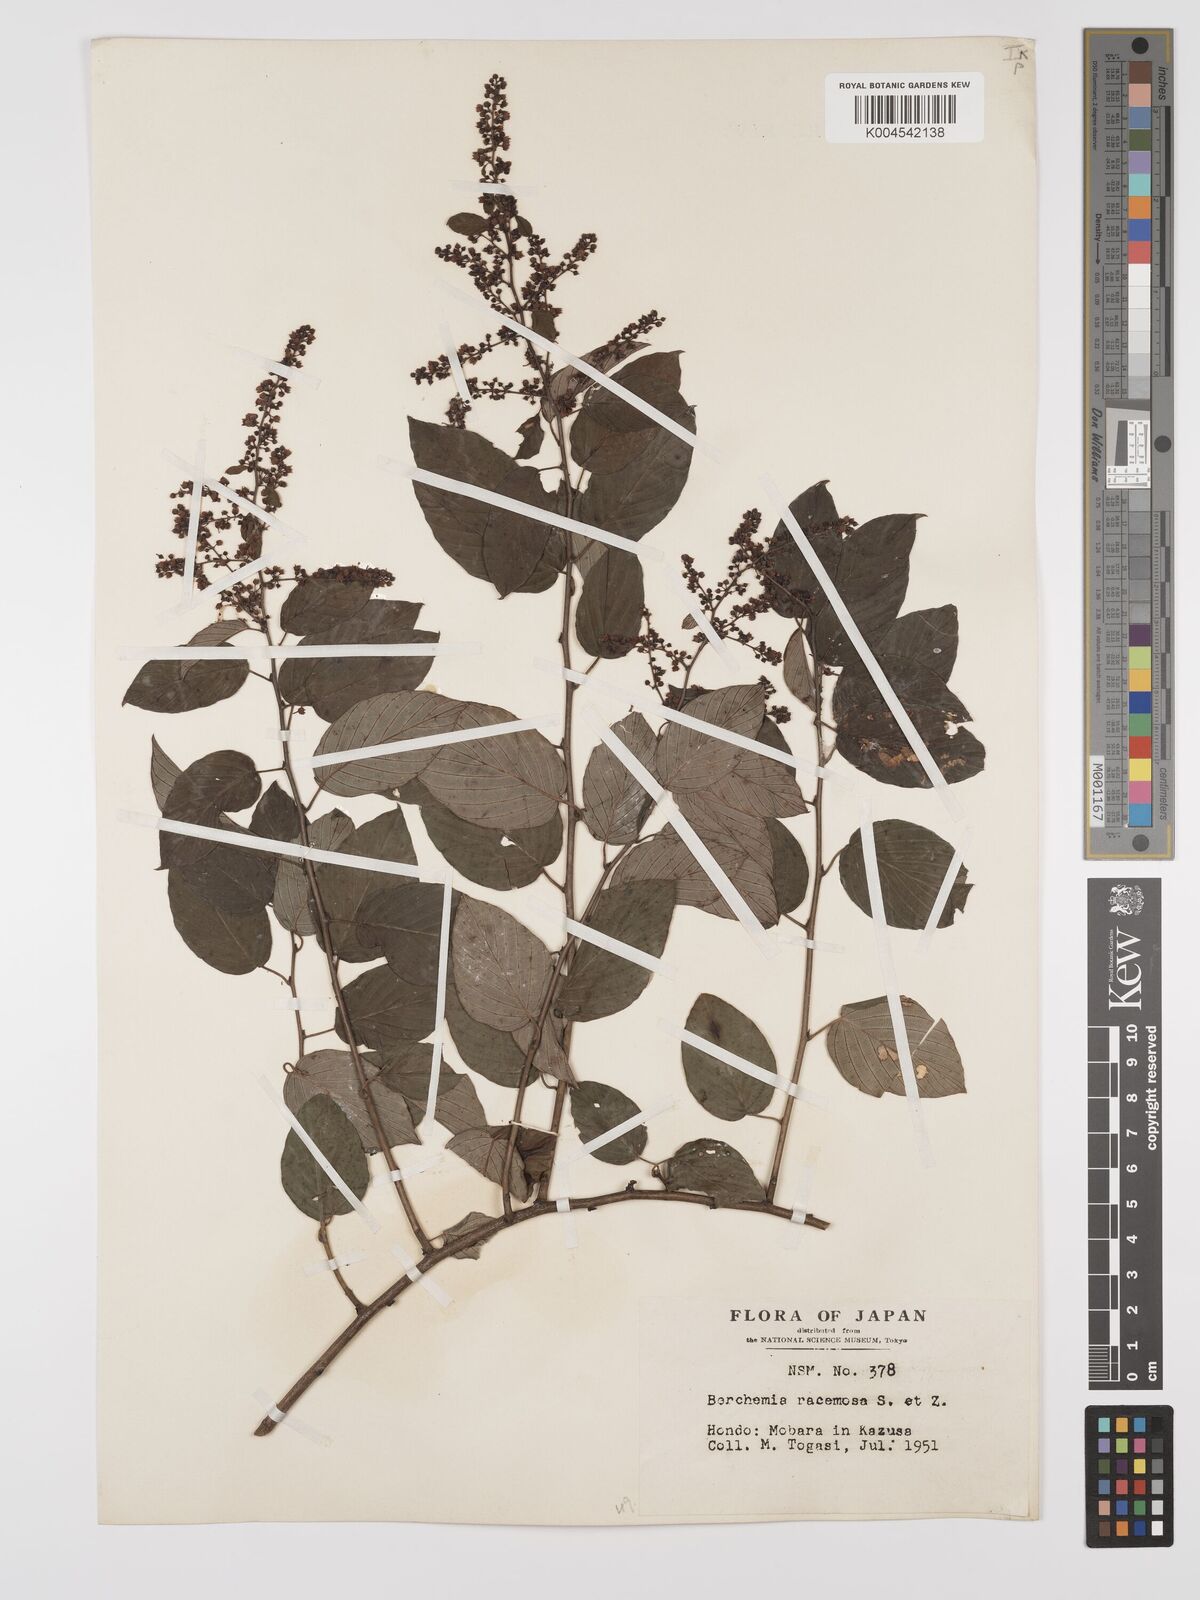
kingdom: Plantae
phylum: Tracheophyta
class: Magnoliopsida
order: Rosales
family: Rhamnaceae
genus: Berchemia
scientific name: Berchemia floribunda
